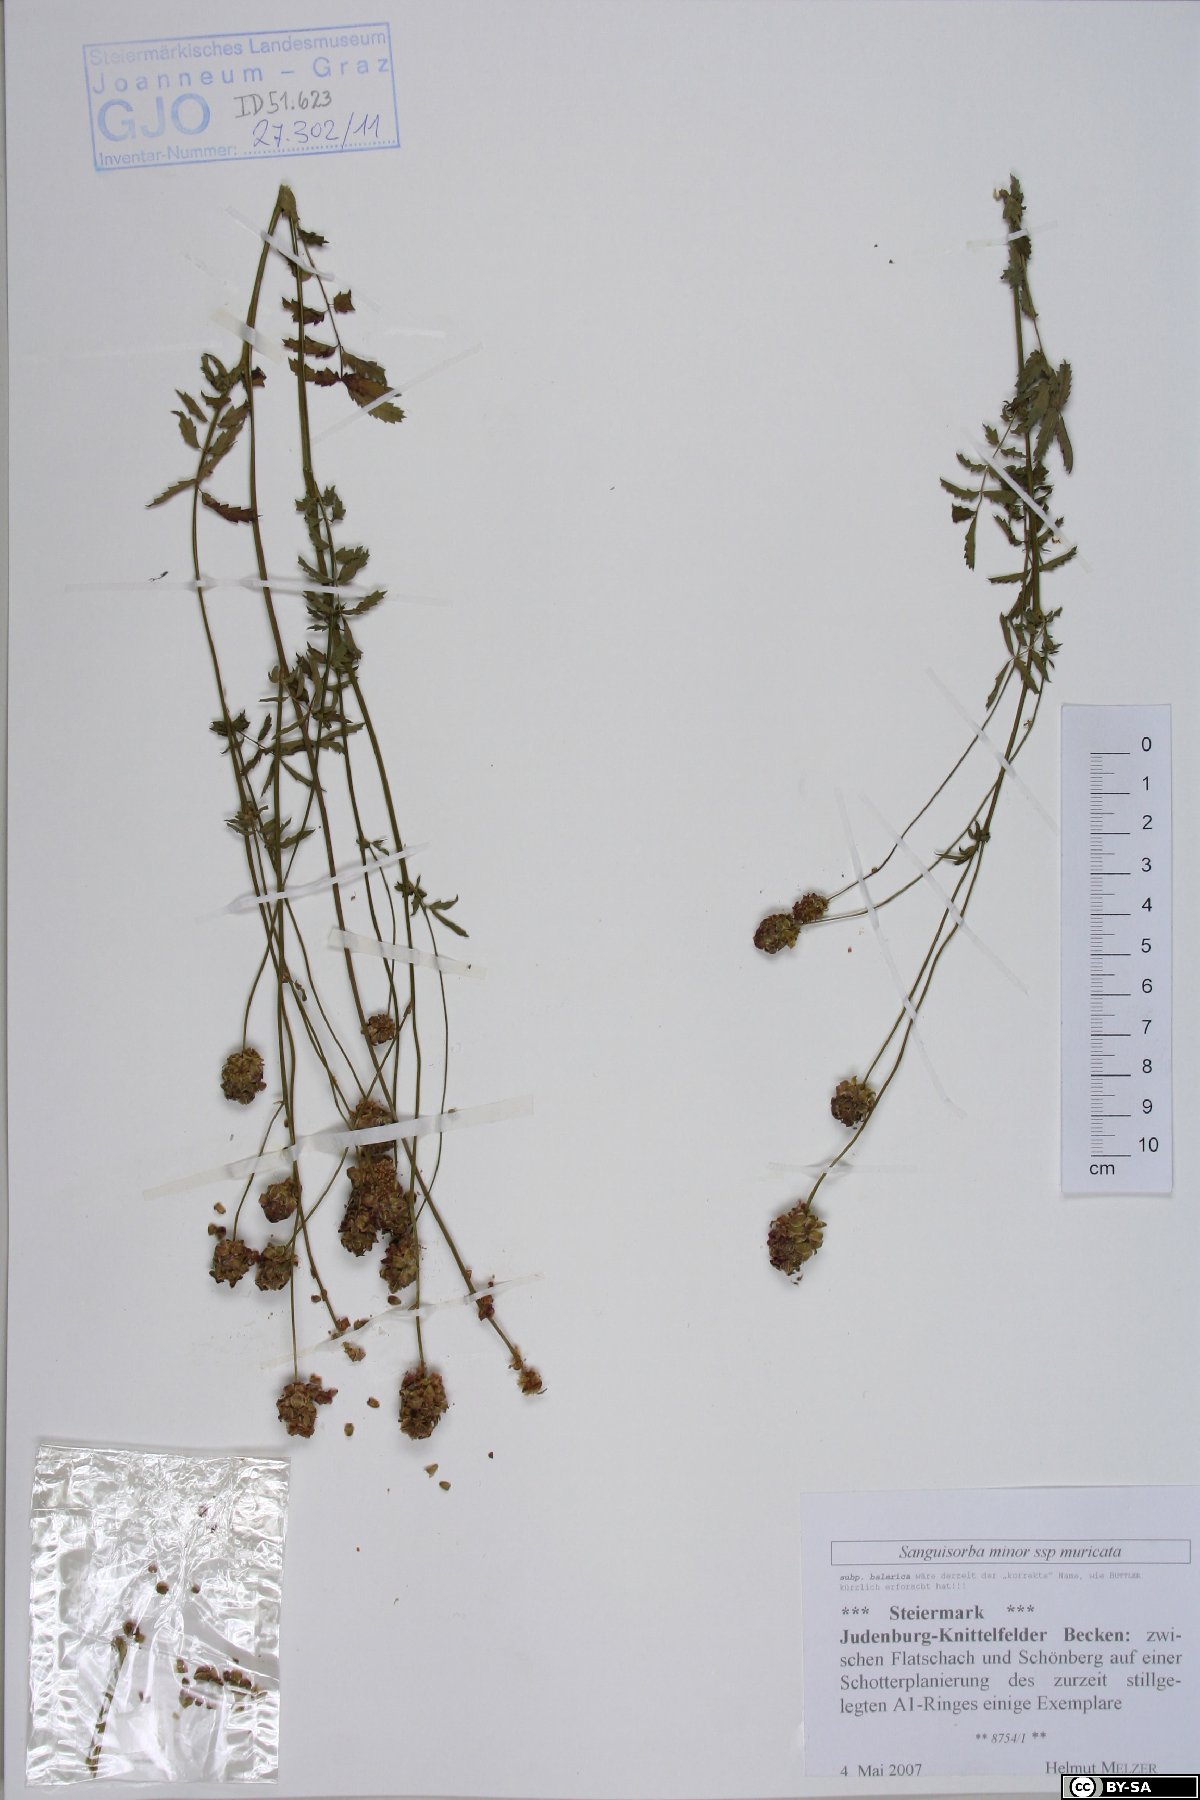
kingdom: Plantae
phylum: Tracheophyta
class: Magnoliopsida
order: Rosales
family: Rosaceae
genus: Poterium
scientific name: Poterium sanguisorba
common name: Salad burnet
